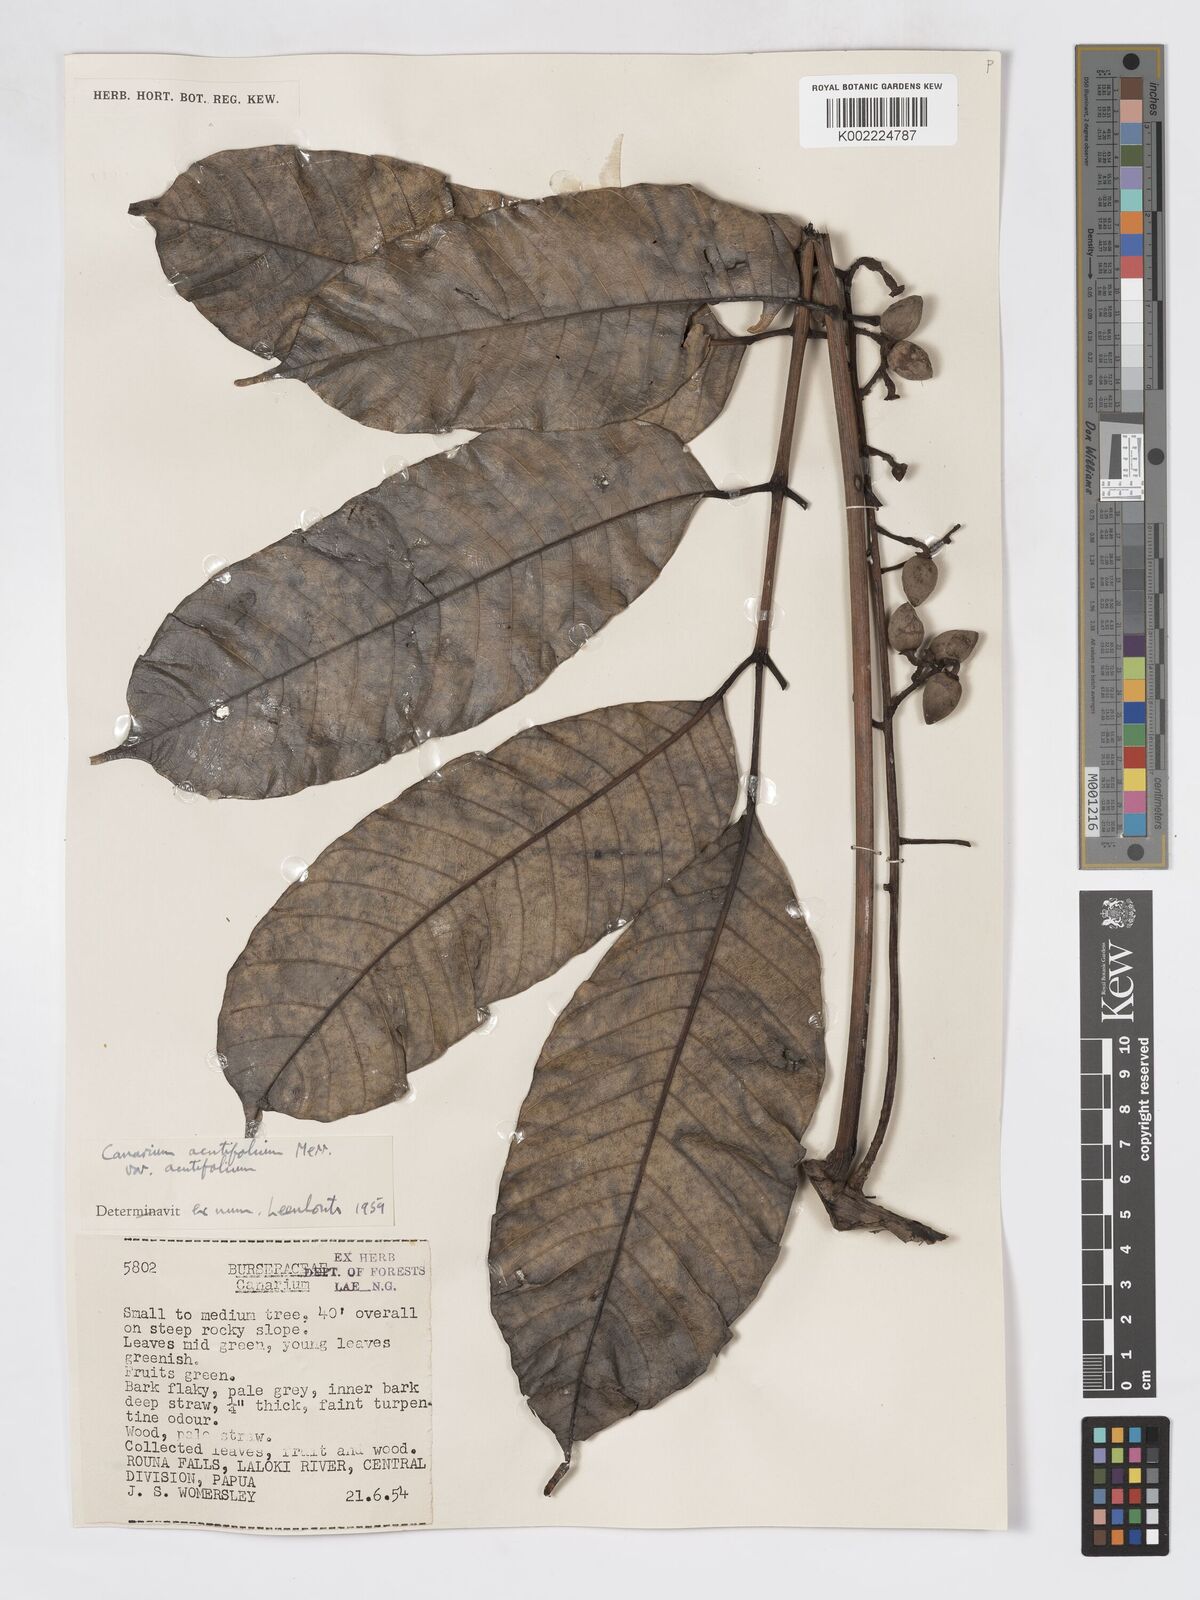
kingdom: Plantae
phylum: Tracheophyta
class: Magnoliopsida
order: Sapindales
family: Burseraceae
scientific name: Burseraceae
